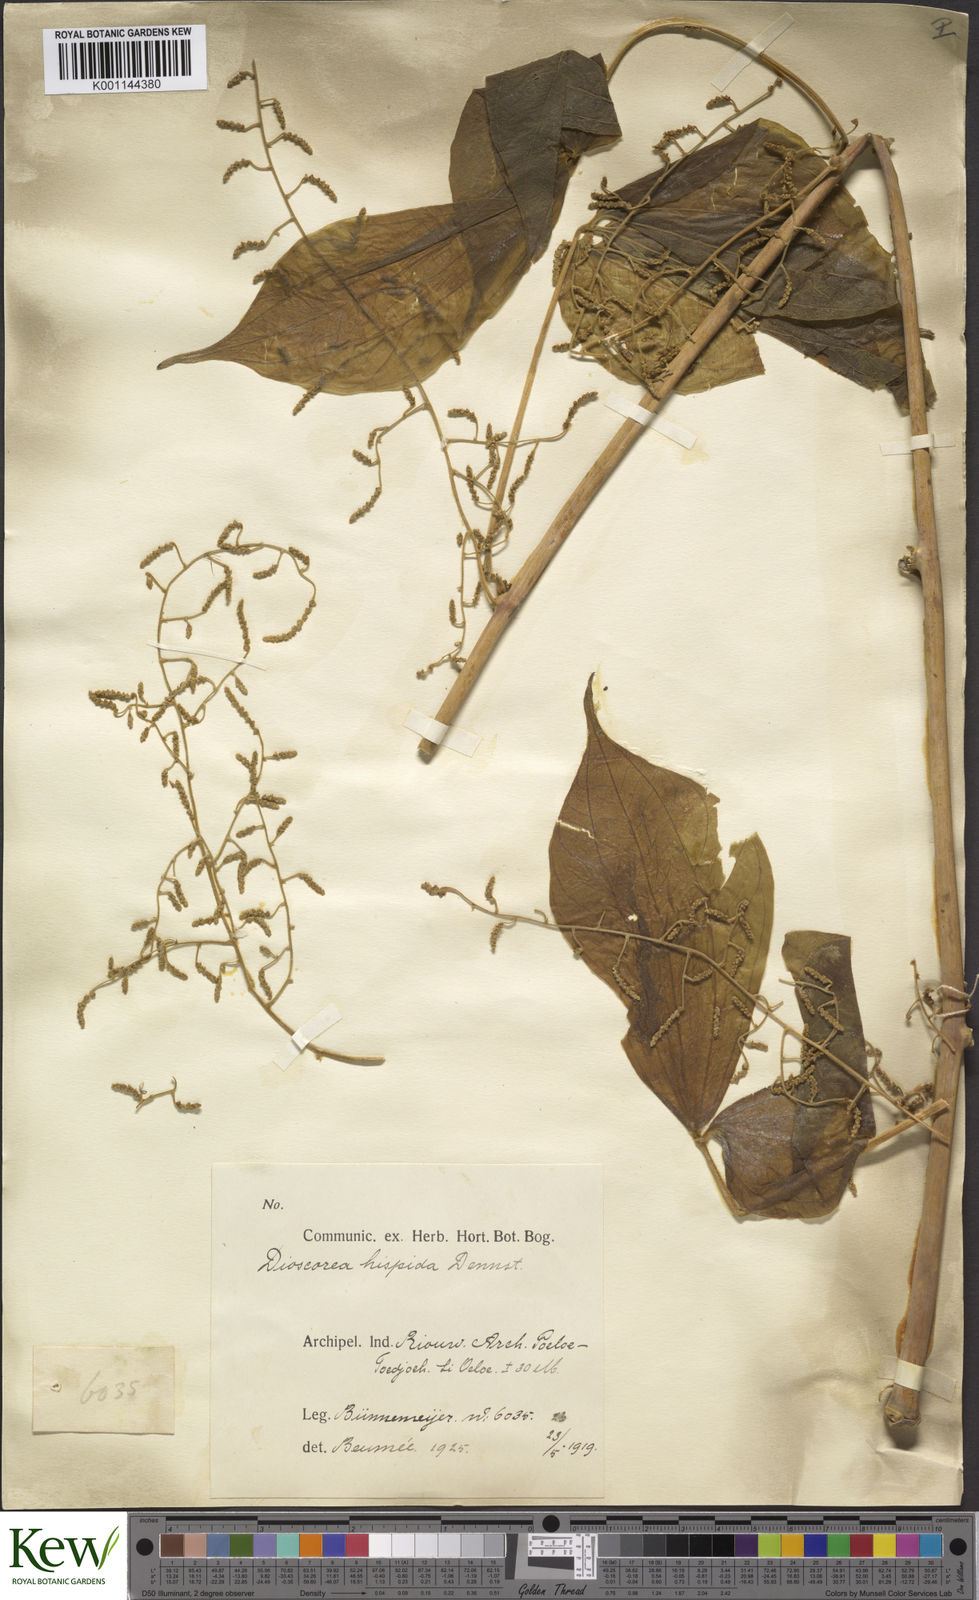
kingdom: Plantae
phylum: Tracheophyta
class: Liliopsida
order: Dioscoreales
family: Dioscoreaceae
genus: Dioscorea
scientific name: Dioscorea hispida
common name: Asiatic bitter yam
